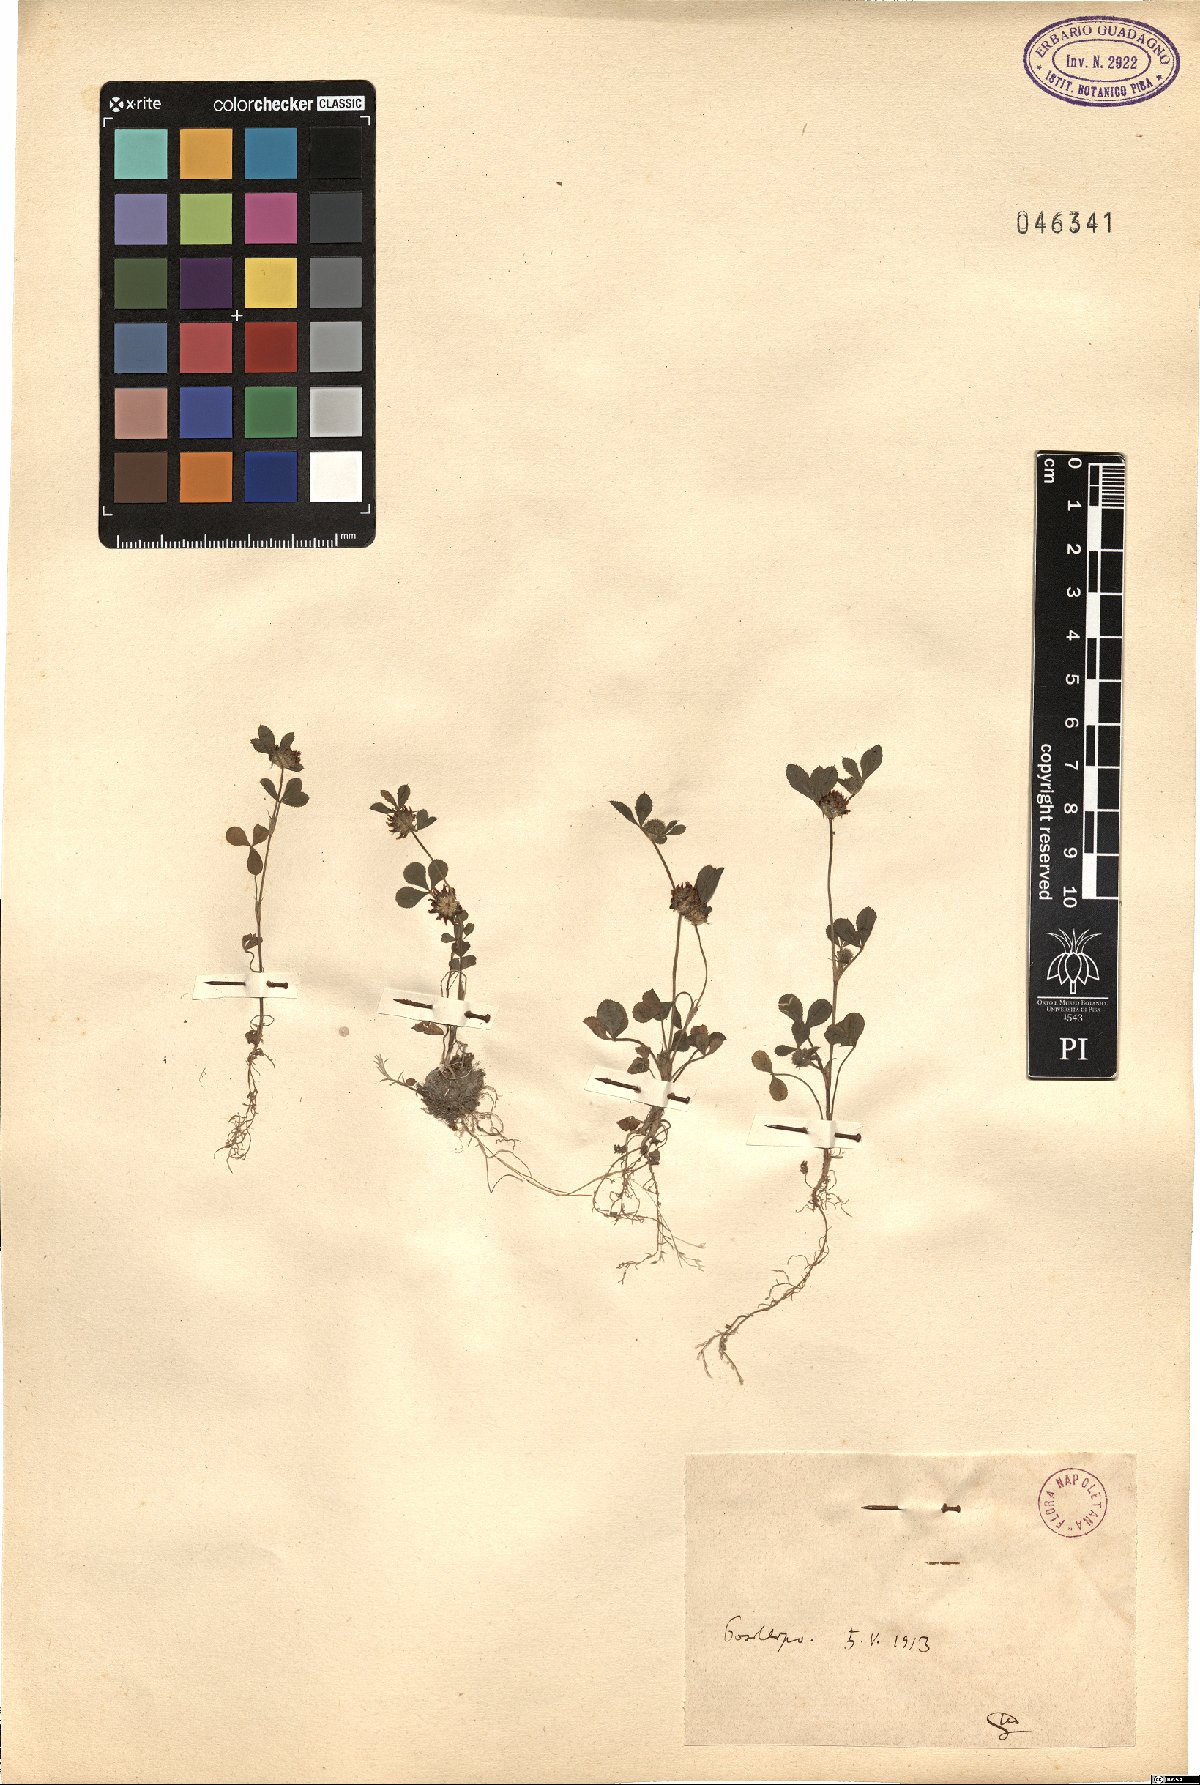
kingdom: Plantae
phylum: Tracheophyta
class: Magnoliopsida
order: Fabales
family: Fabaceae
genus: Trifolium
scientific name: Trifolium
